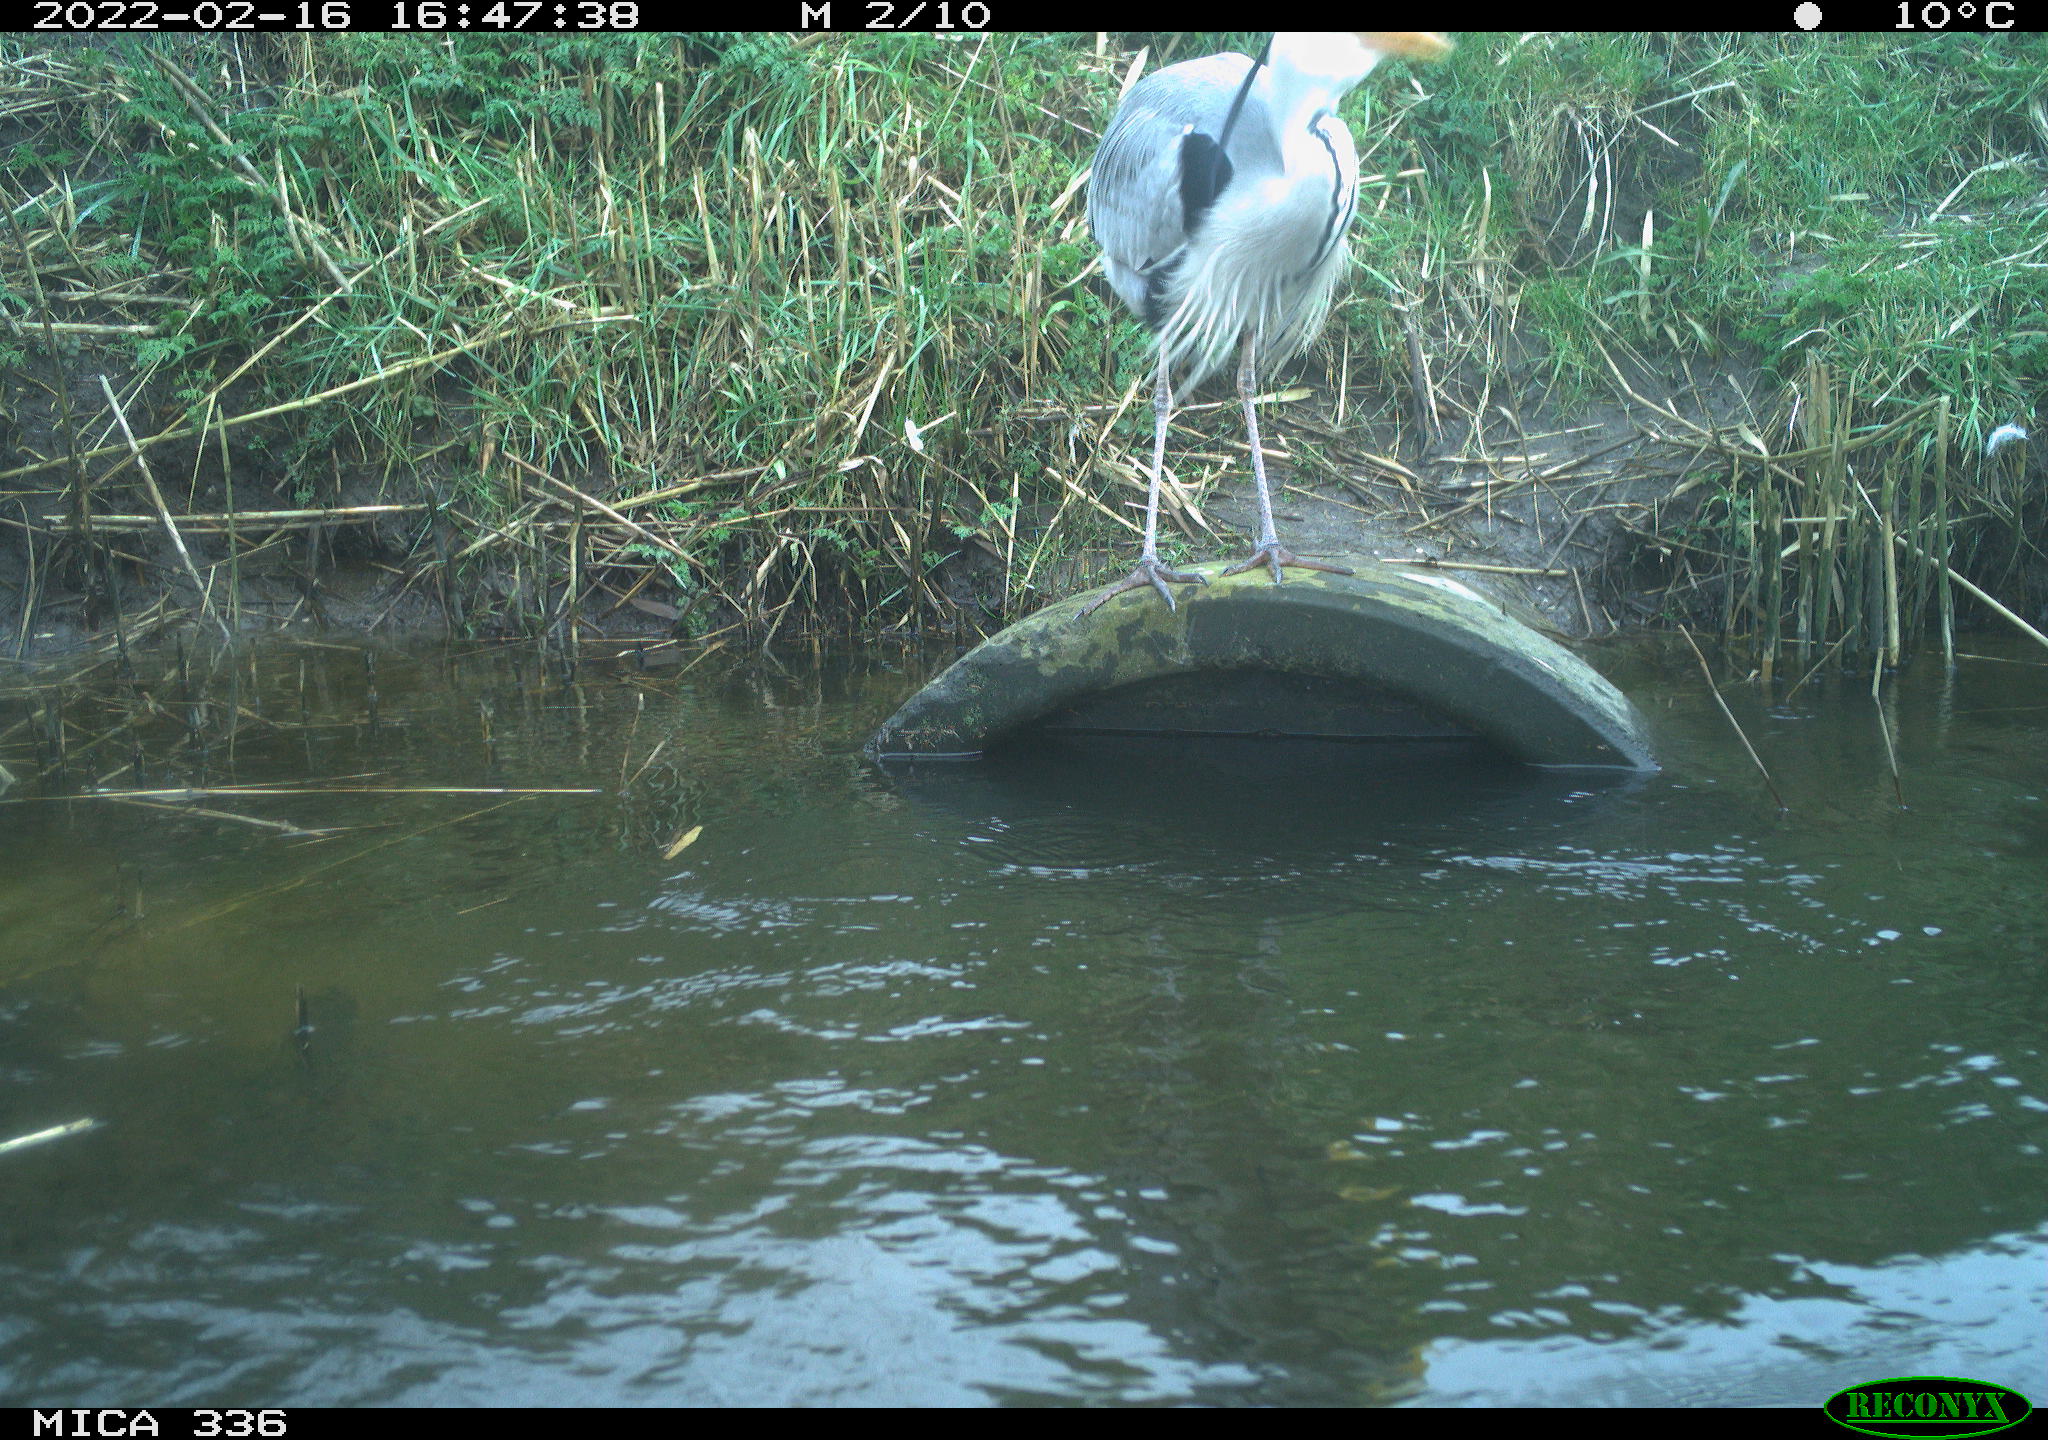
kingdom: Animalia
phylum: Chordata
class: Aves
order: Pelecaniformes
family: Ardeidae
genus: Ardea
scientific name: Ardea cinerea
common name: Grey heron
